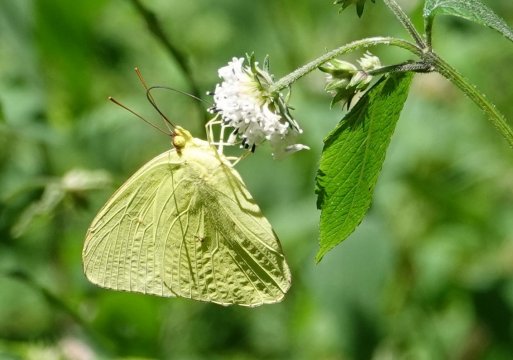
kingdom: Animalia
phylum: Arthropoda
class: Insecta
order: Lepidoptera
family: Pieridae
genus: Phoebis
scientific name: Phoebis sennae
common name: Cloudless Sulphur
